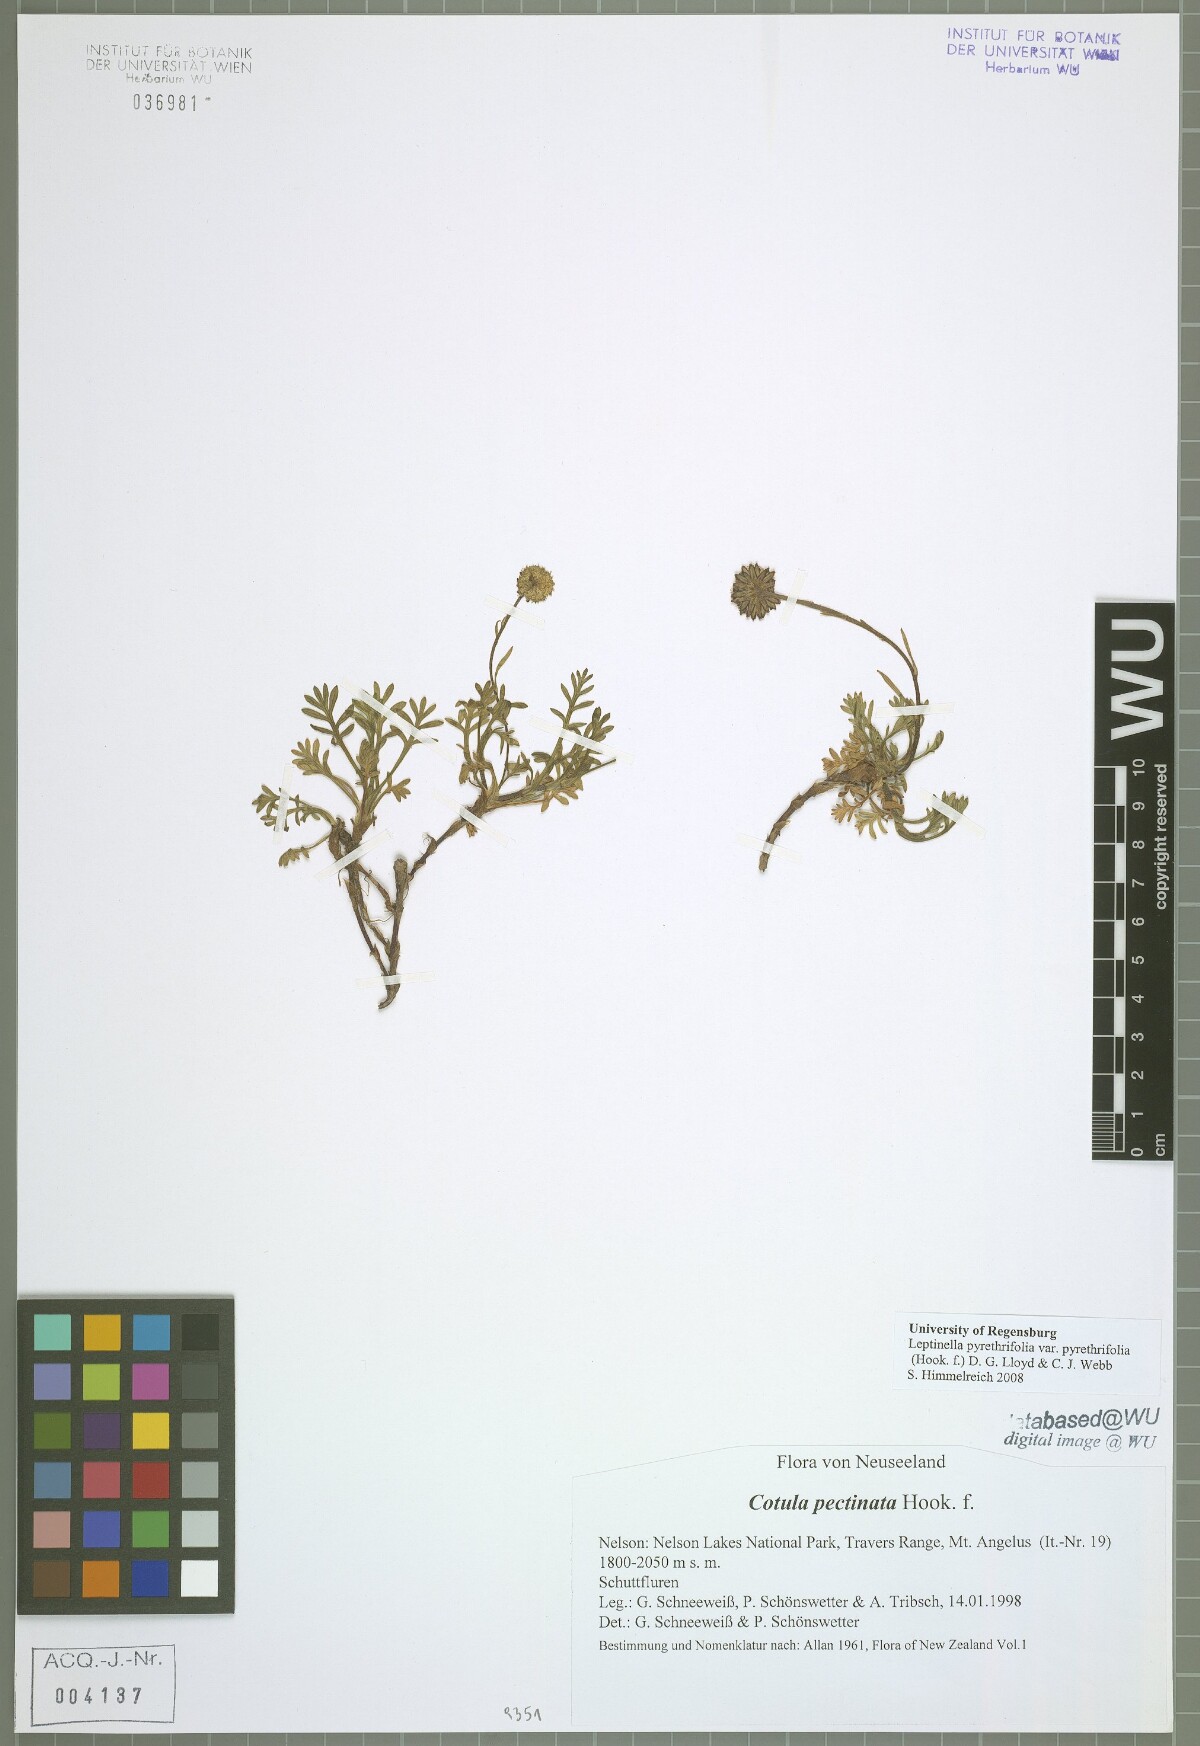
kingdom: Plantae
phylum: Tracheophyta
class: Magnoliopsida
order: Asterales
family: Asteraceae
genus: Leptinella
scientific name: Leptinella pyrethrifolia
